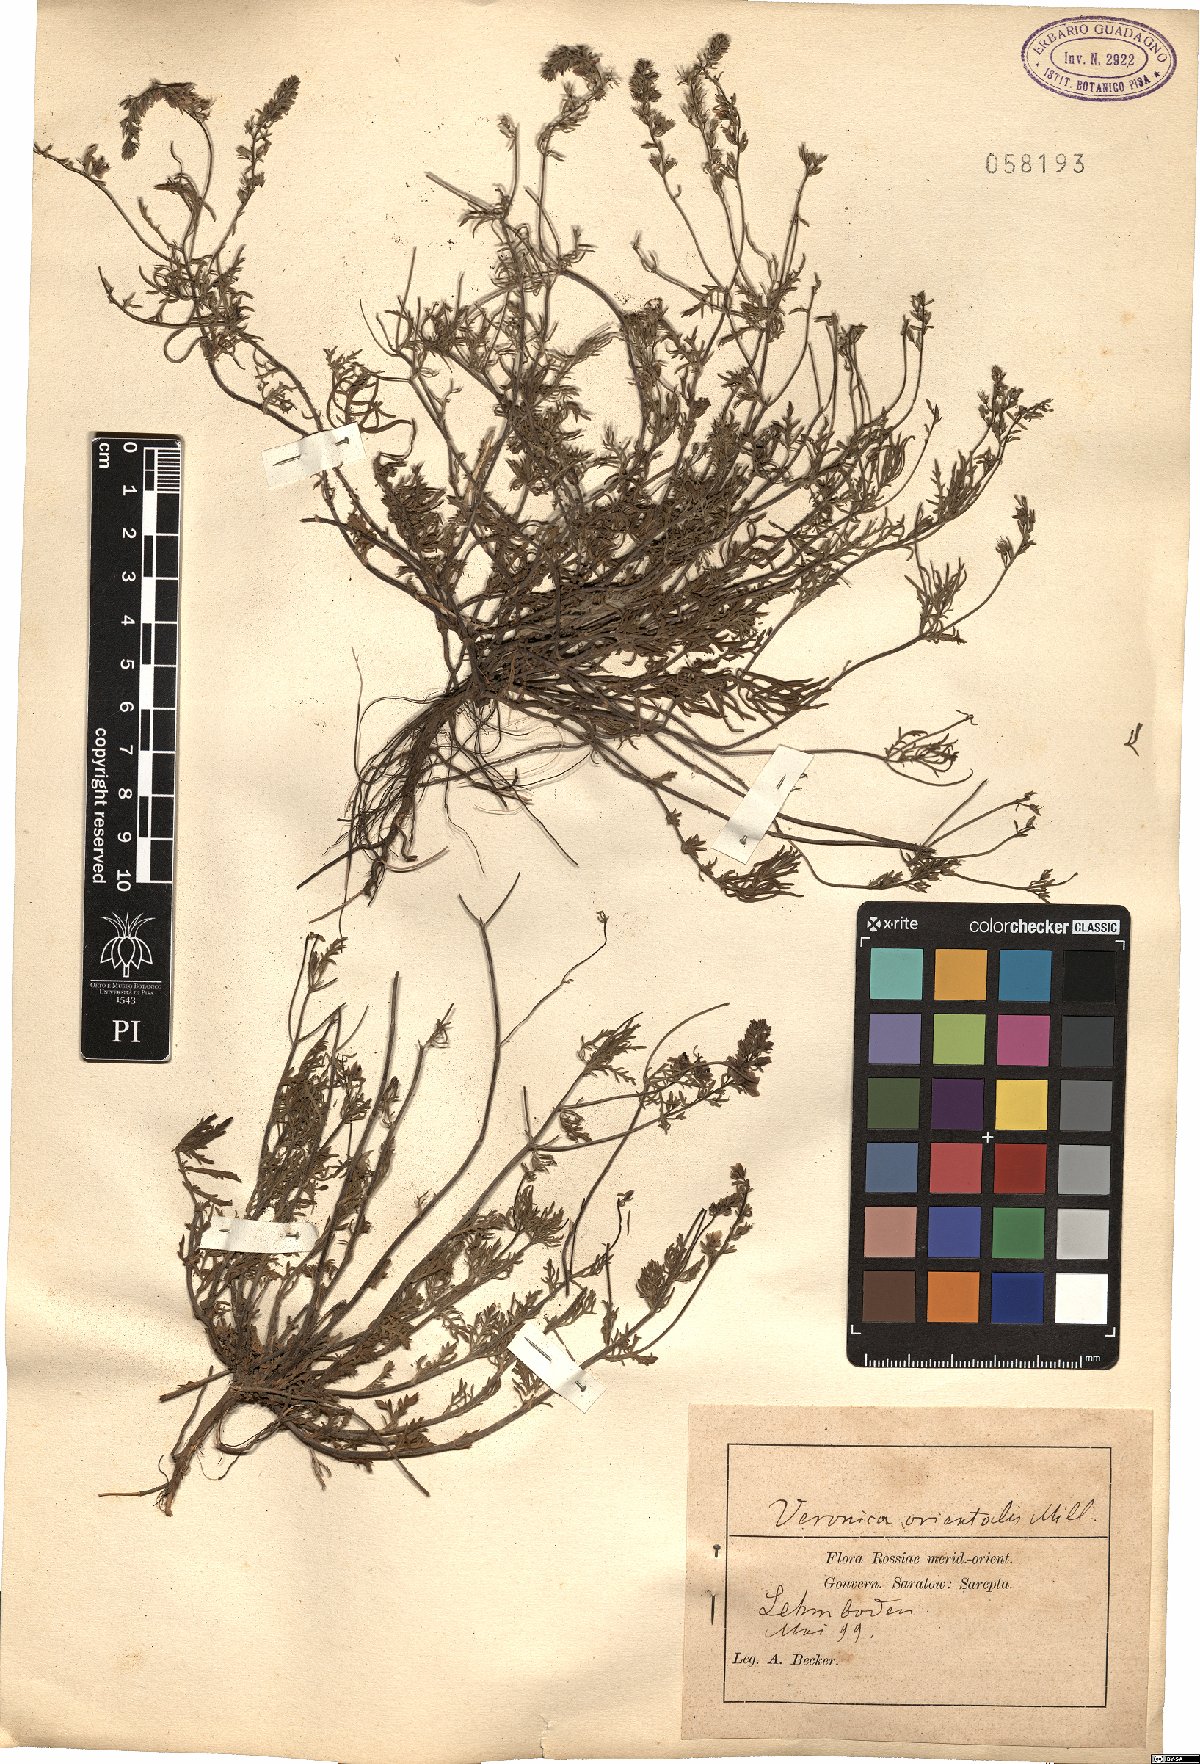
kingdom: Plantae
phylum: Tracheophyta
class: Magnoliopsida
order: Lamiales
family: Plantaginaceae
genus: Veronica
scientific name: Veronica orientalis
